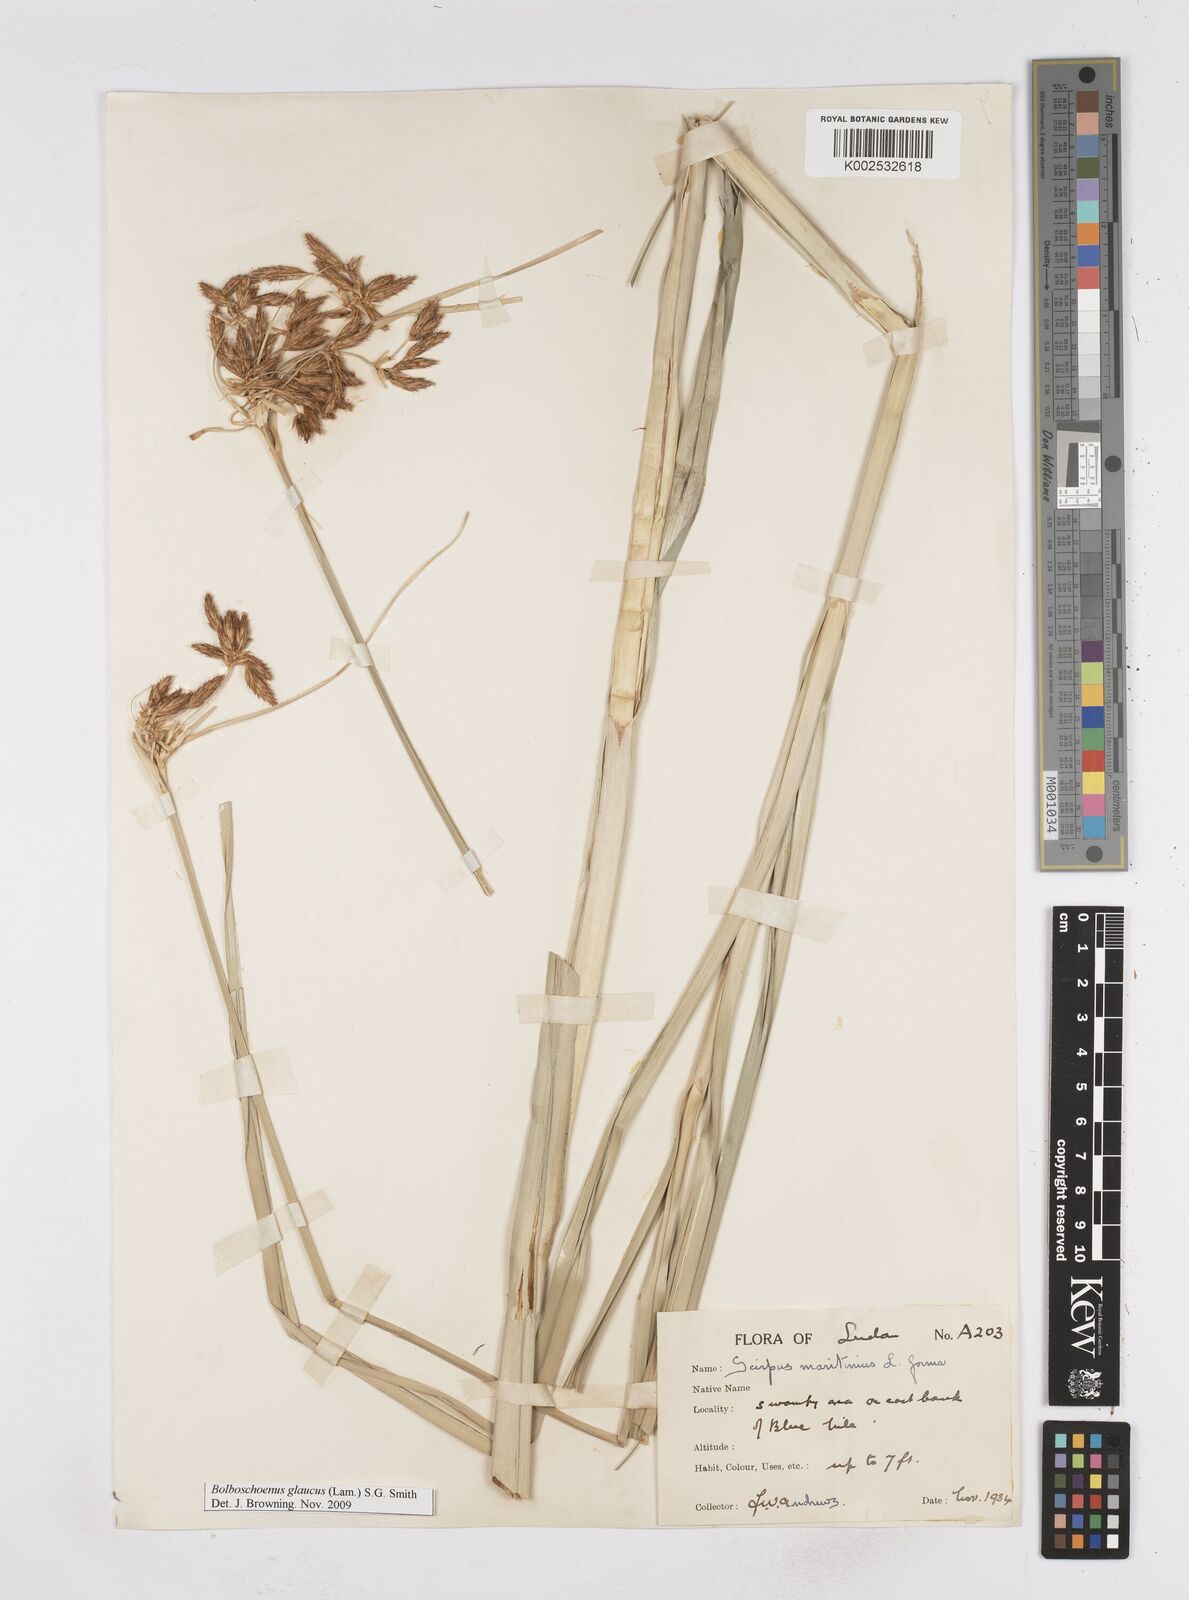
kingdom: Plantae
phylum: Tracheophyta
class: Liliopsida
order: Poales
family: Cyperaceae
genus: Bolboschoenus
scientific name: Bolboschoenus glaucus
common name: Tuberous bulrush
